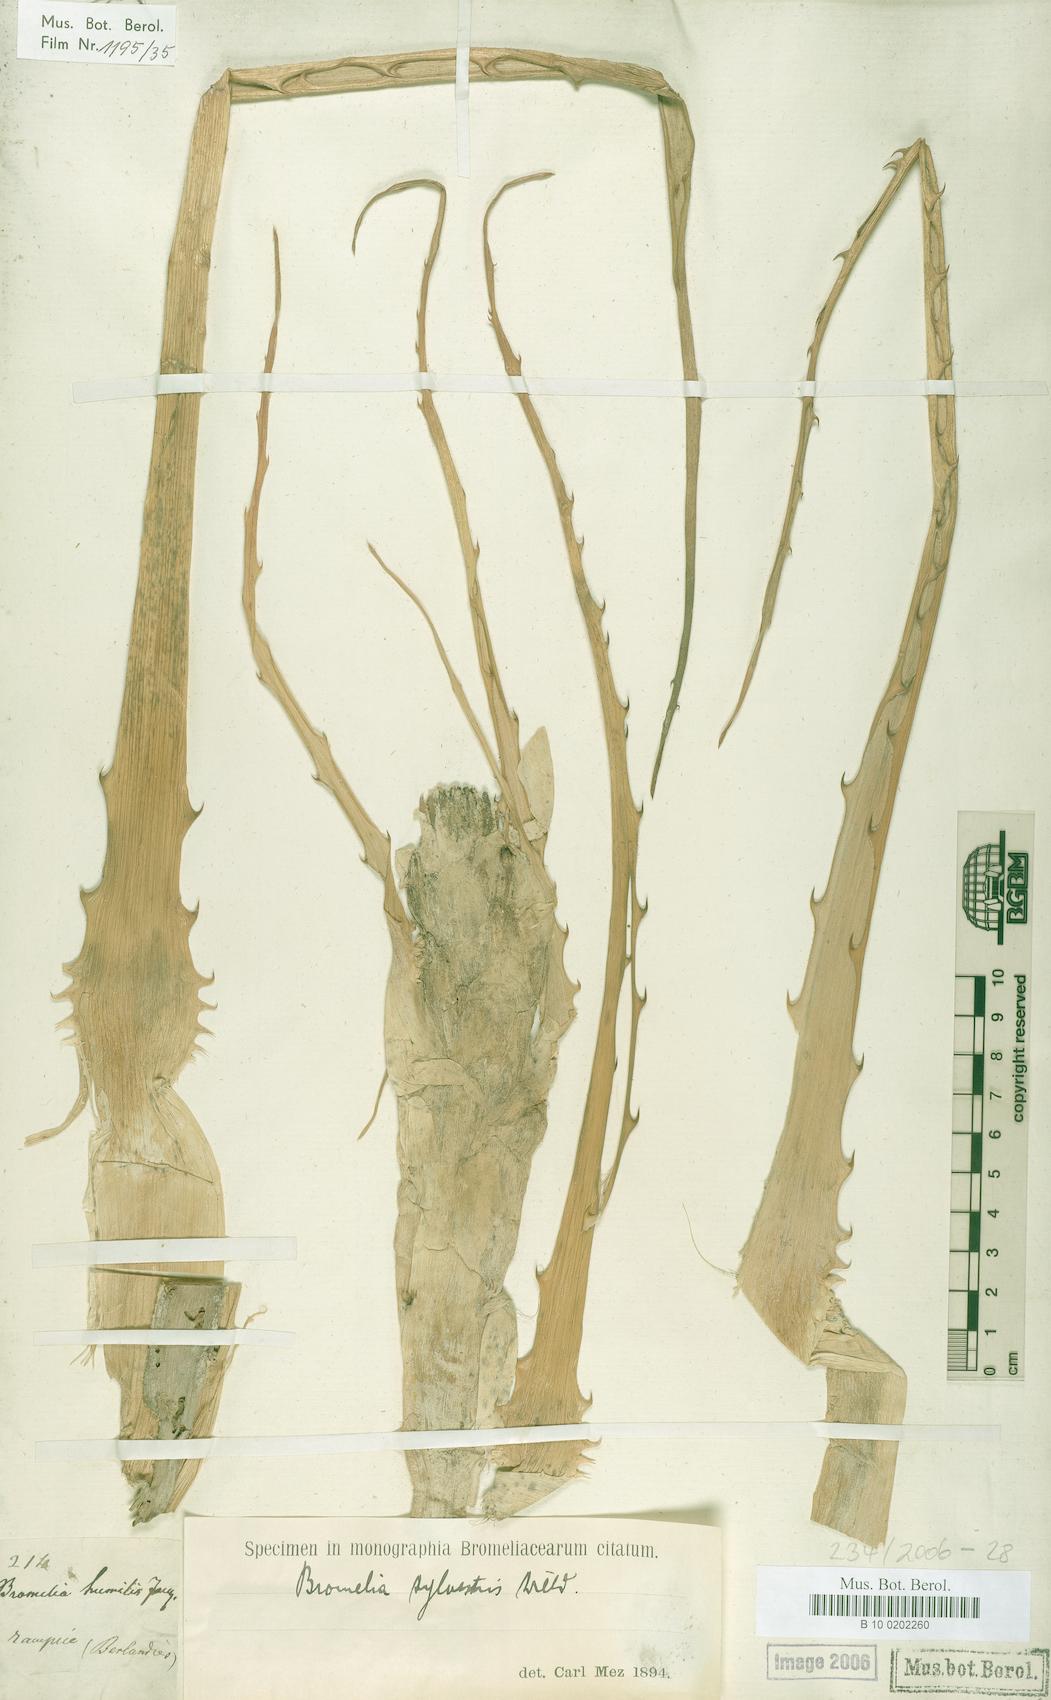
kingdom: Plantae
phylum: Tracheophyta
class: Liliopsida
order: Poales
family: Bromeliaceae
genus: Bromelia
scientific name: Bromelia pinguin
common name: Pinguin
